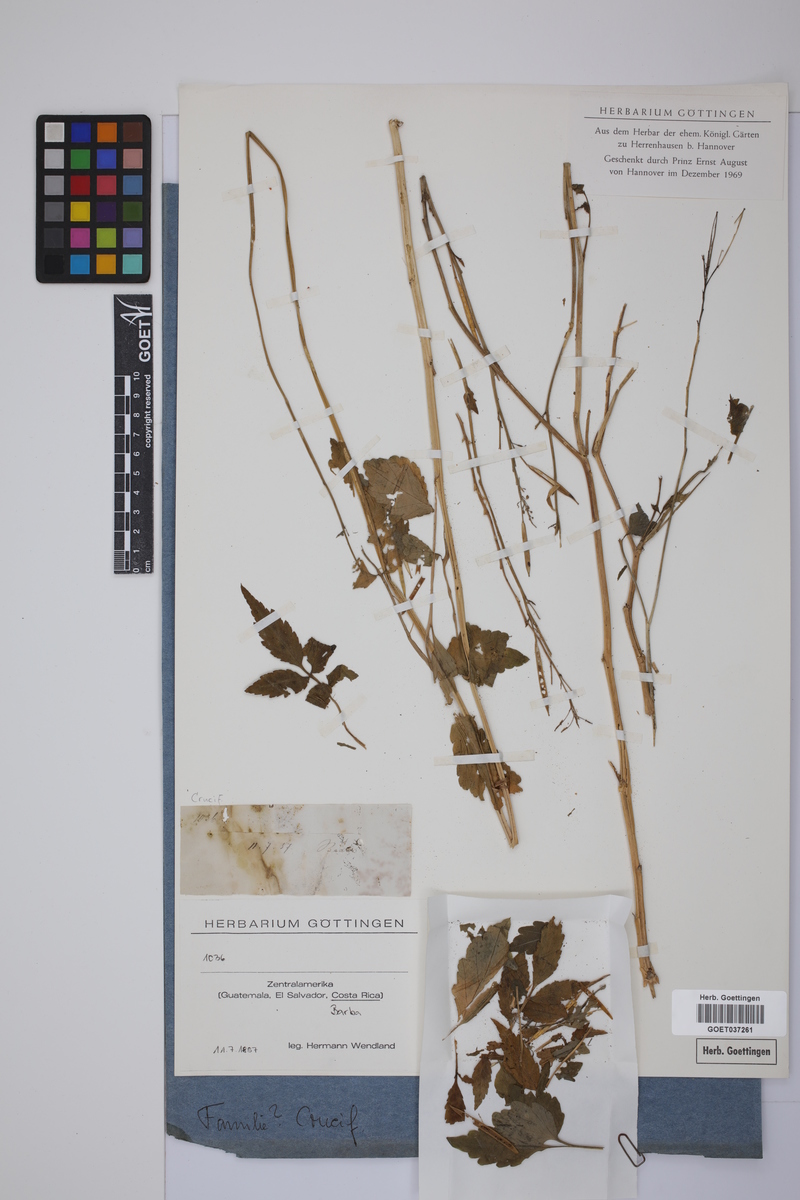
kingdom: Plantae
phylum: Tracheophyta
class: Magnoliopsida
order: Brassicales
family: Brassicaceae
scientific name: Brassicaceae
